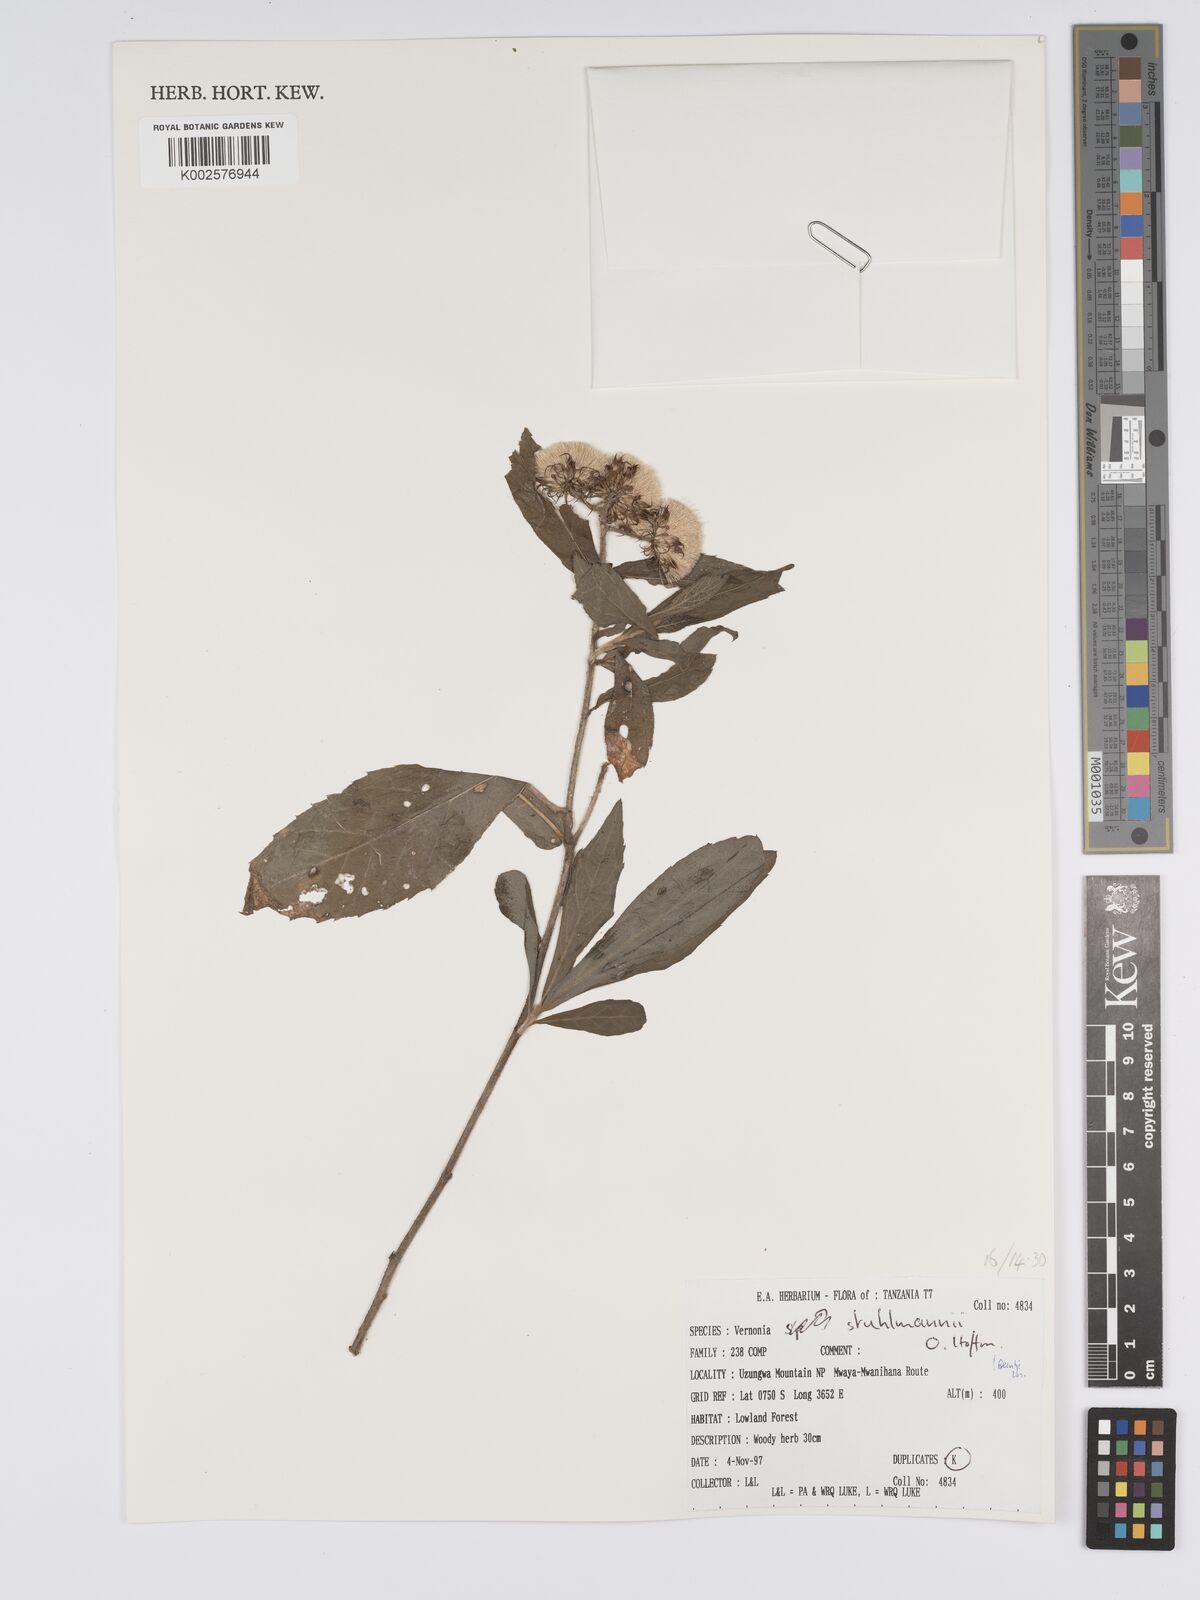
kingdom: Plantae
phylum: Tracheophyta
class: Magnoliopsida
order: Asterales
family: Asteraceae
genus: Vernonia
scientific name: Vernonia stuhlmannii
